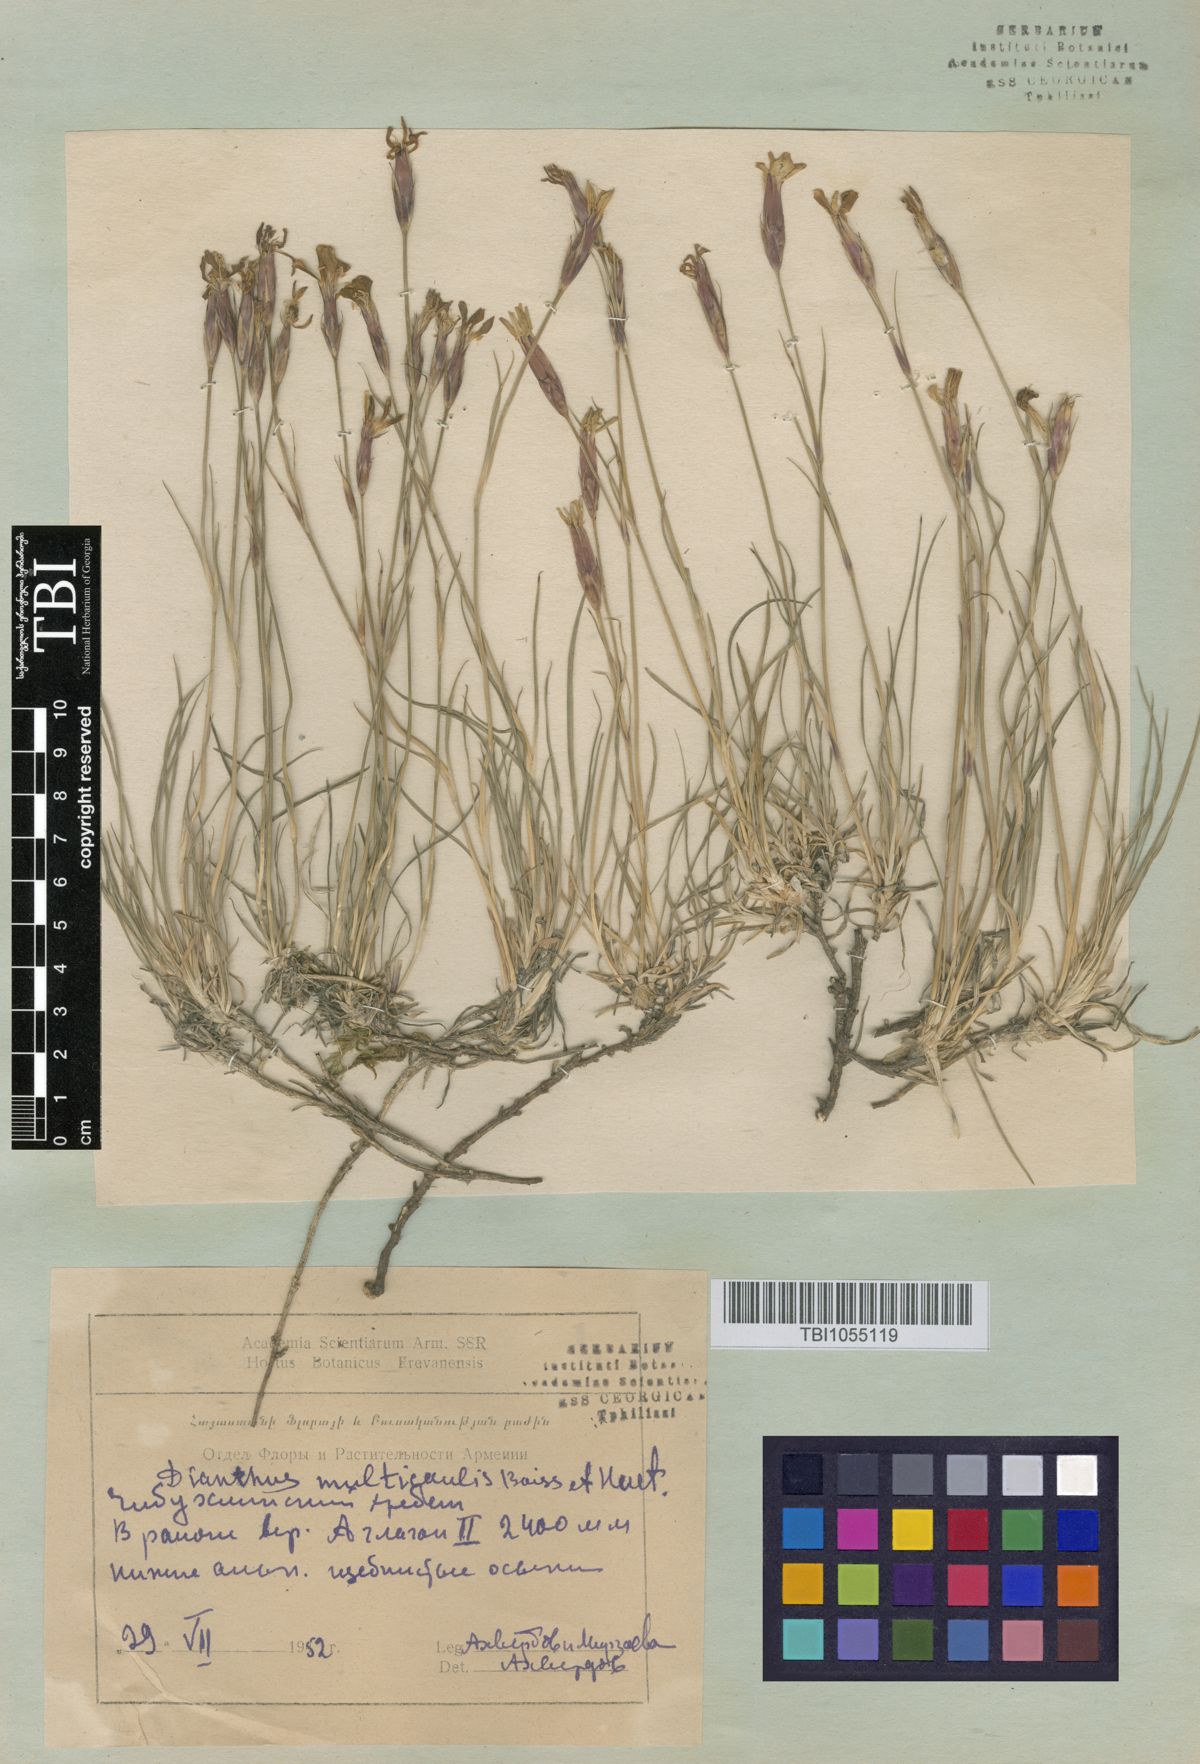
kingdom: Plantae
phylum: Tracheophyta
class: Magnoliopsida
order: Caryophyllales
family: Caryophyllaceae
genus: Dianthus
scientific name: Dianthus cretaceus
